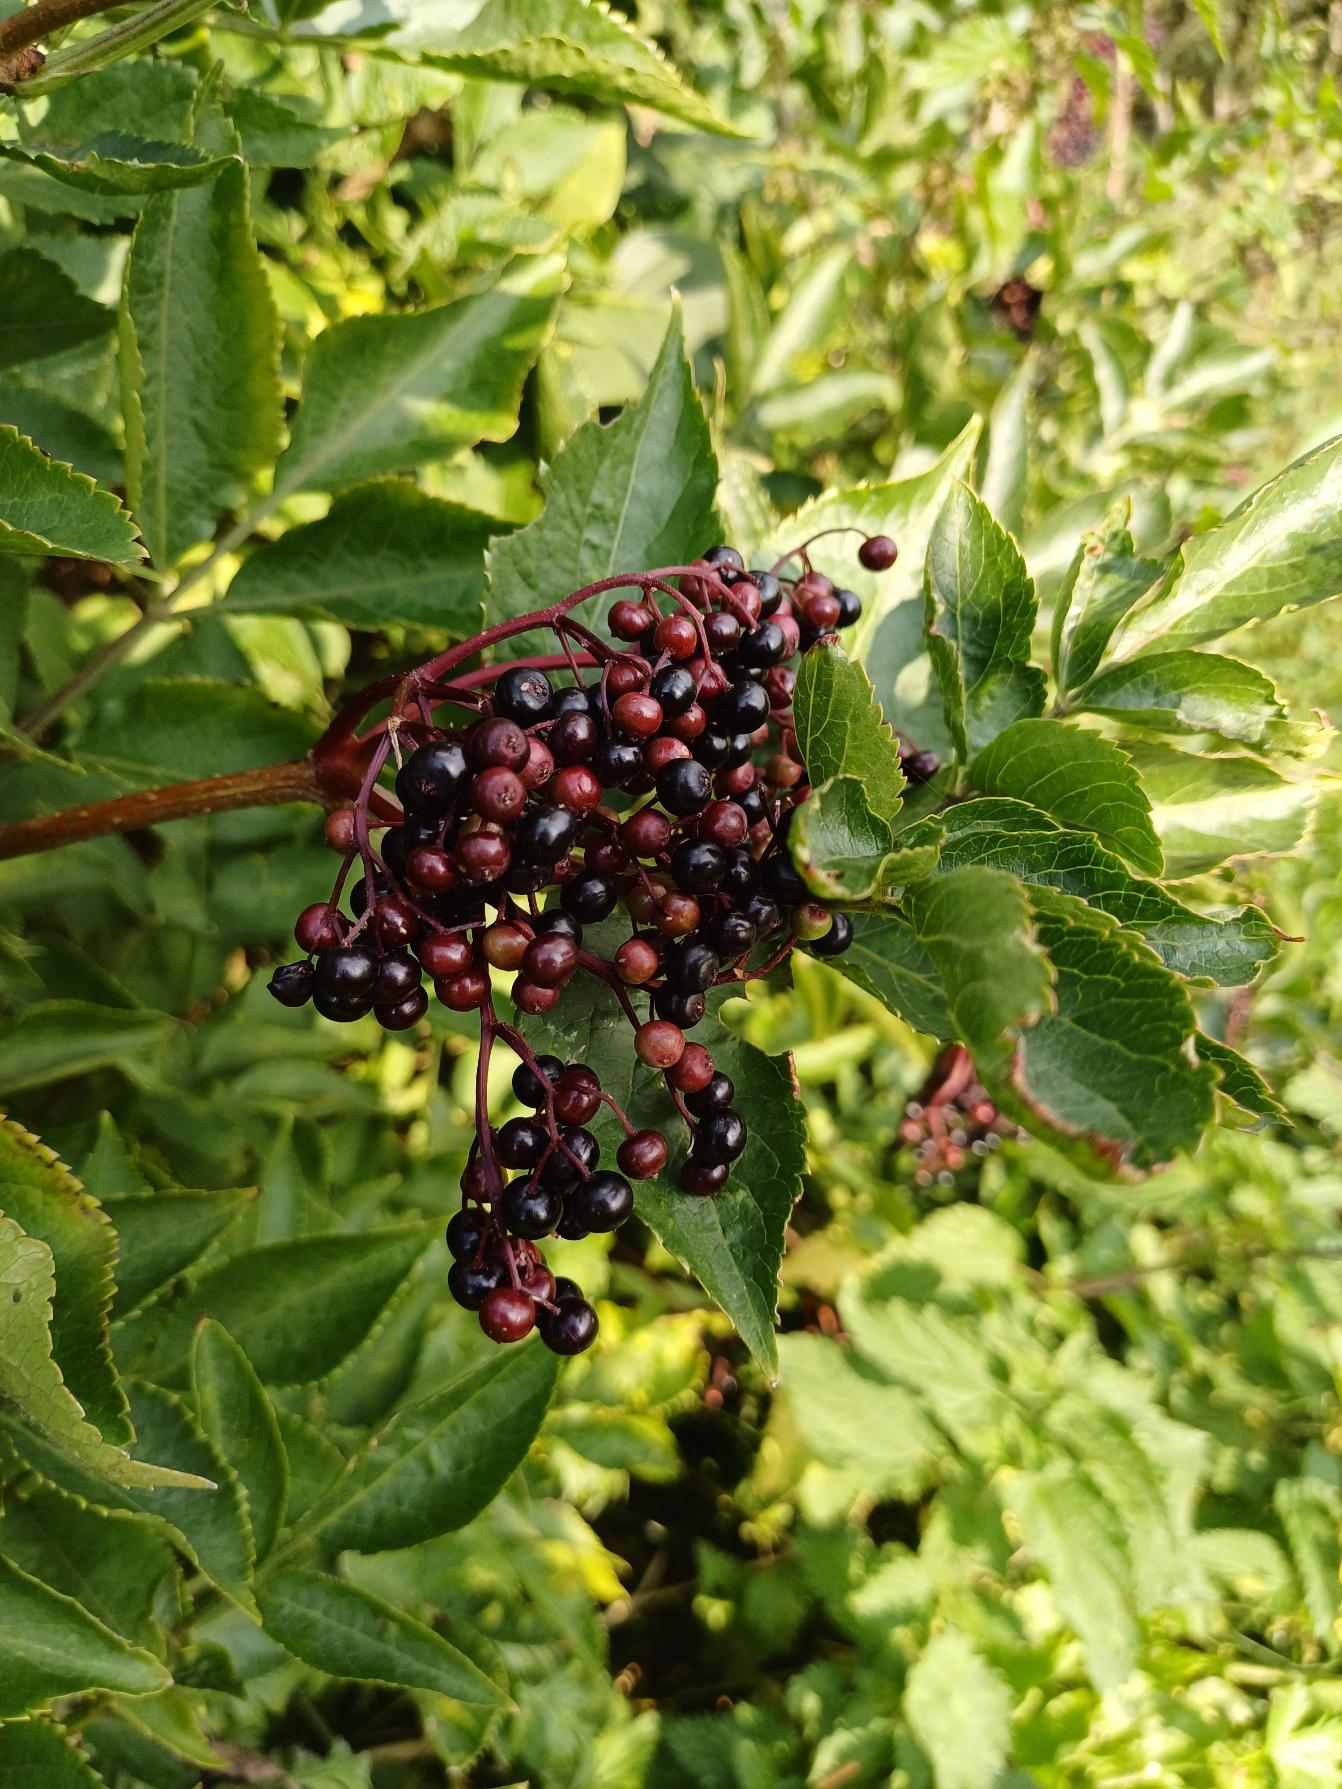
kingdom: Plantae
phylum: Tracheophyta
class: Magnoliopsida
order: Dipsacales
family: Viburnaceae
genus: Sambucus
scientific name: Sambucus nigra
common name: Almindelig hyld
